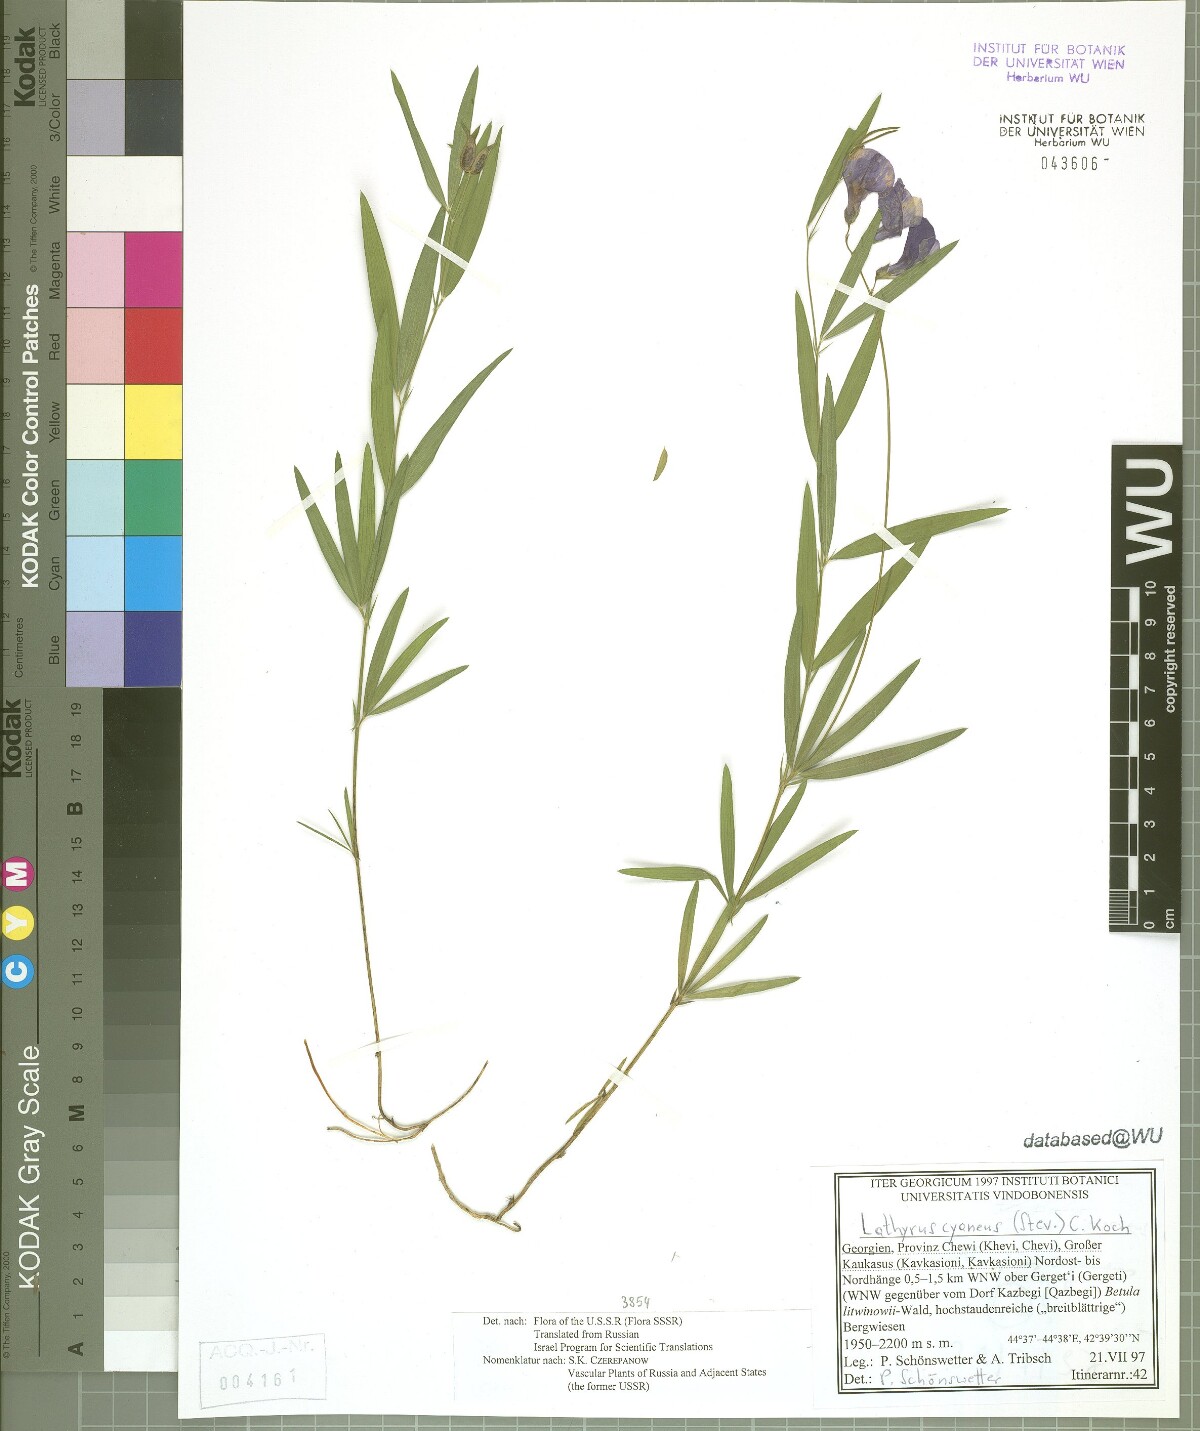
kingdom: Plantae
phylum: Tracheophyta
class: Magnoliopsida
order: Fabales
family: Fabaceae
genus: Lathyrus
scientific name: Lathyrus cyaneus
